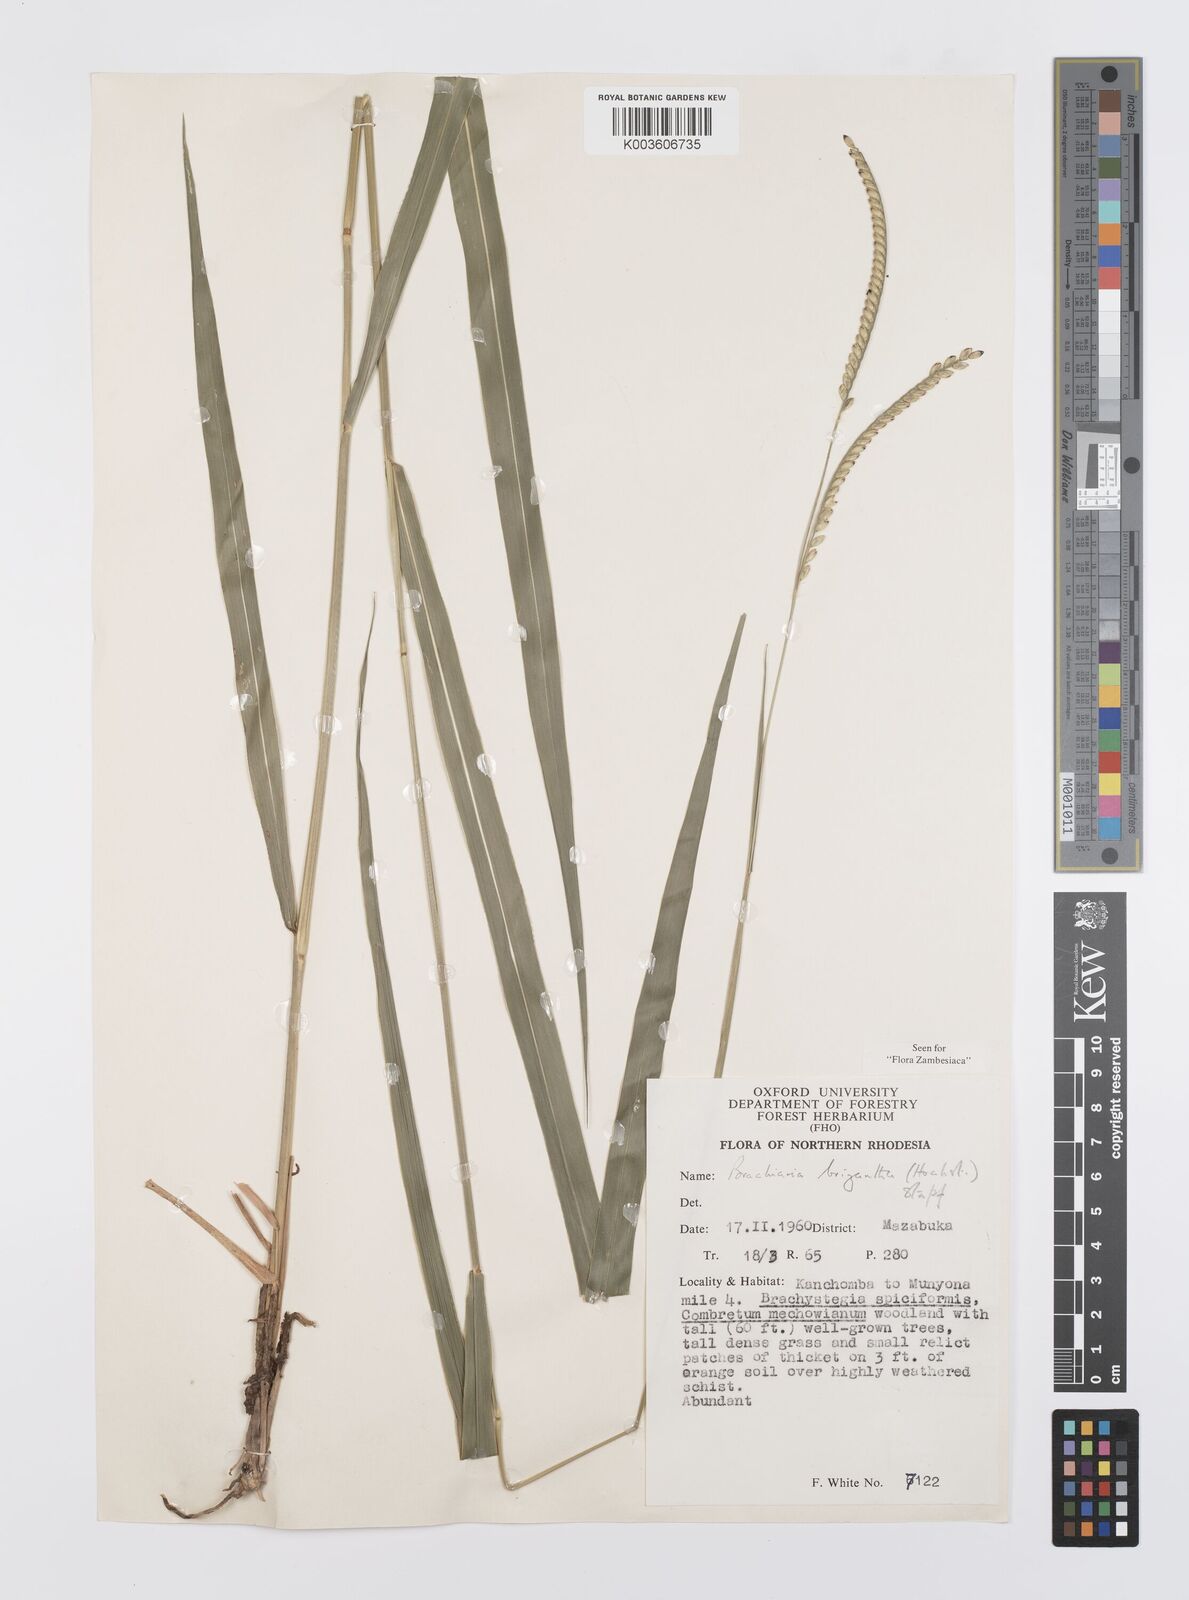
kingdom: Plantae
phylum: Tracheophyta
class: Liliopsida
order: Poales
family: Poaceae
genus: Urochloa
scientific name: Urochloa brizantha
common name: Palisade signalgrass
